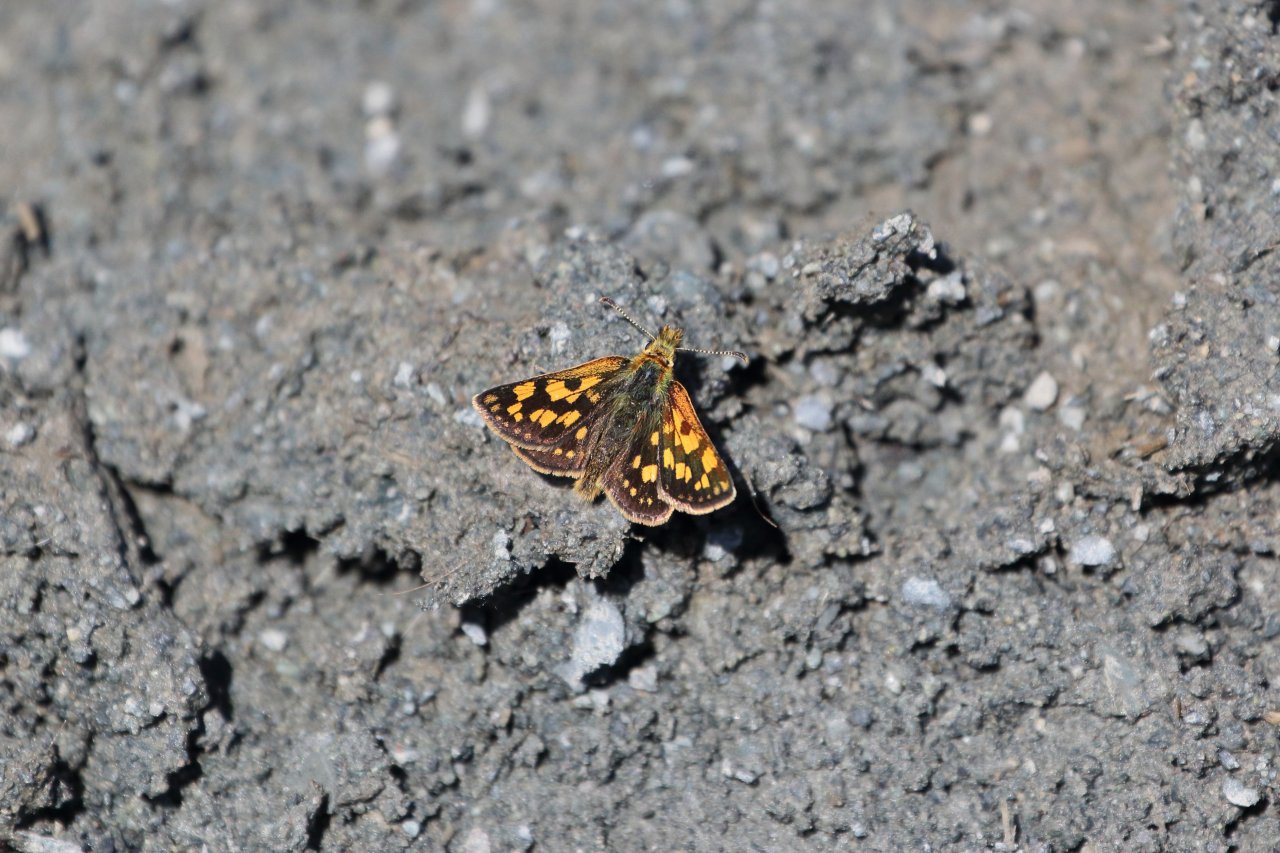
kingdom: Animalia
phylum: Arthropoda
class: Insecta
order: Lepidoptera
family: Hesperiidae
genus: Carterocephalus
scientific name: Carterocephalus palaemon
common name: Chequered Skipper
